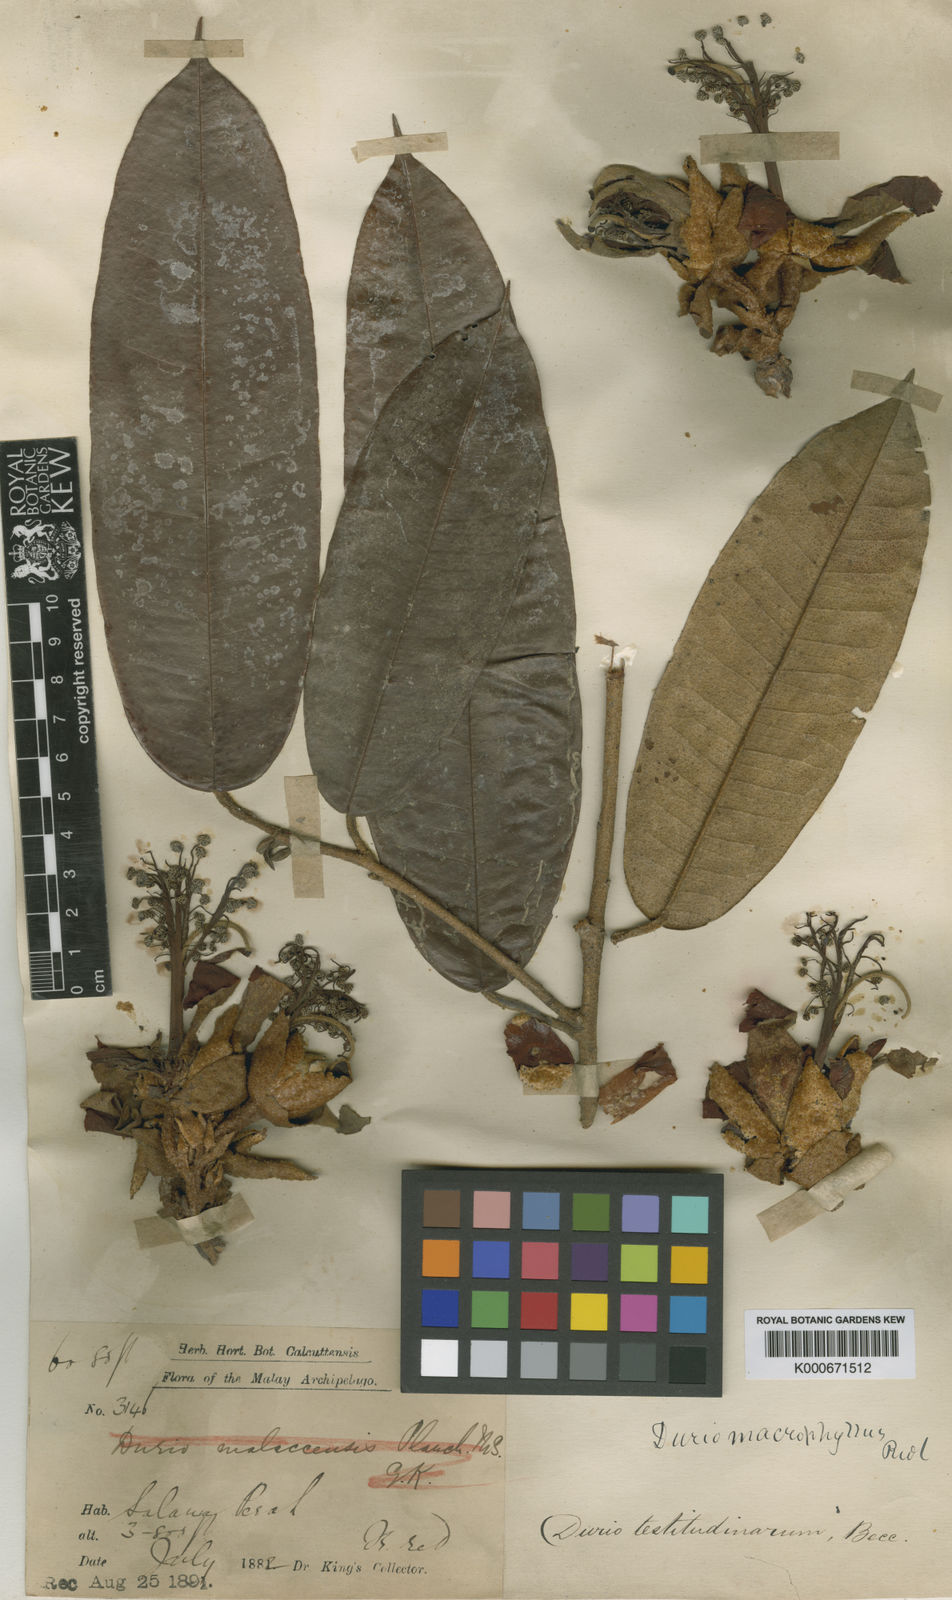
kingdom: Plantae
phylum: Tracheophyta
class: Magnoliopsida
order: Malvales
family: Malvaceae
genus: Durio
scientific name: Durio macrophyllus
